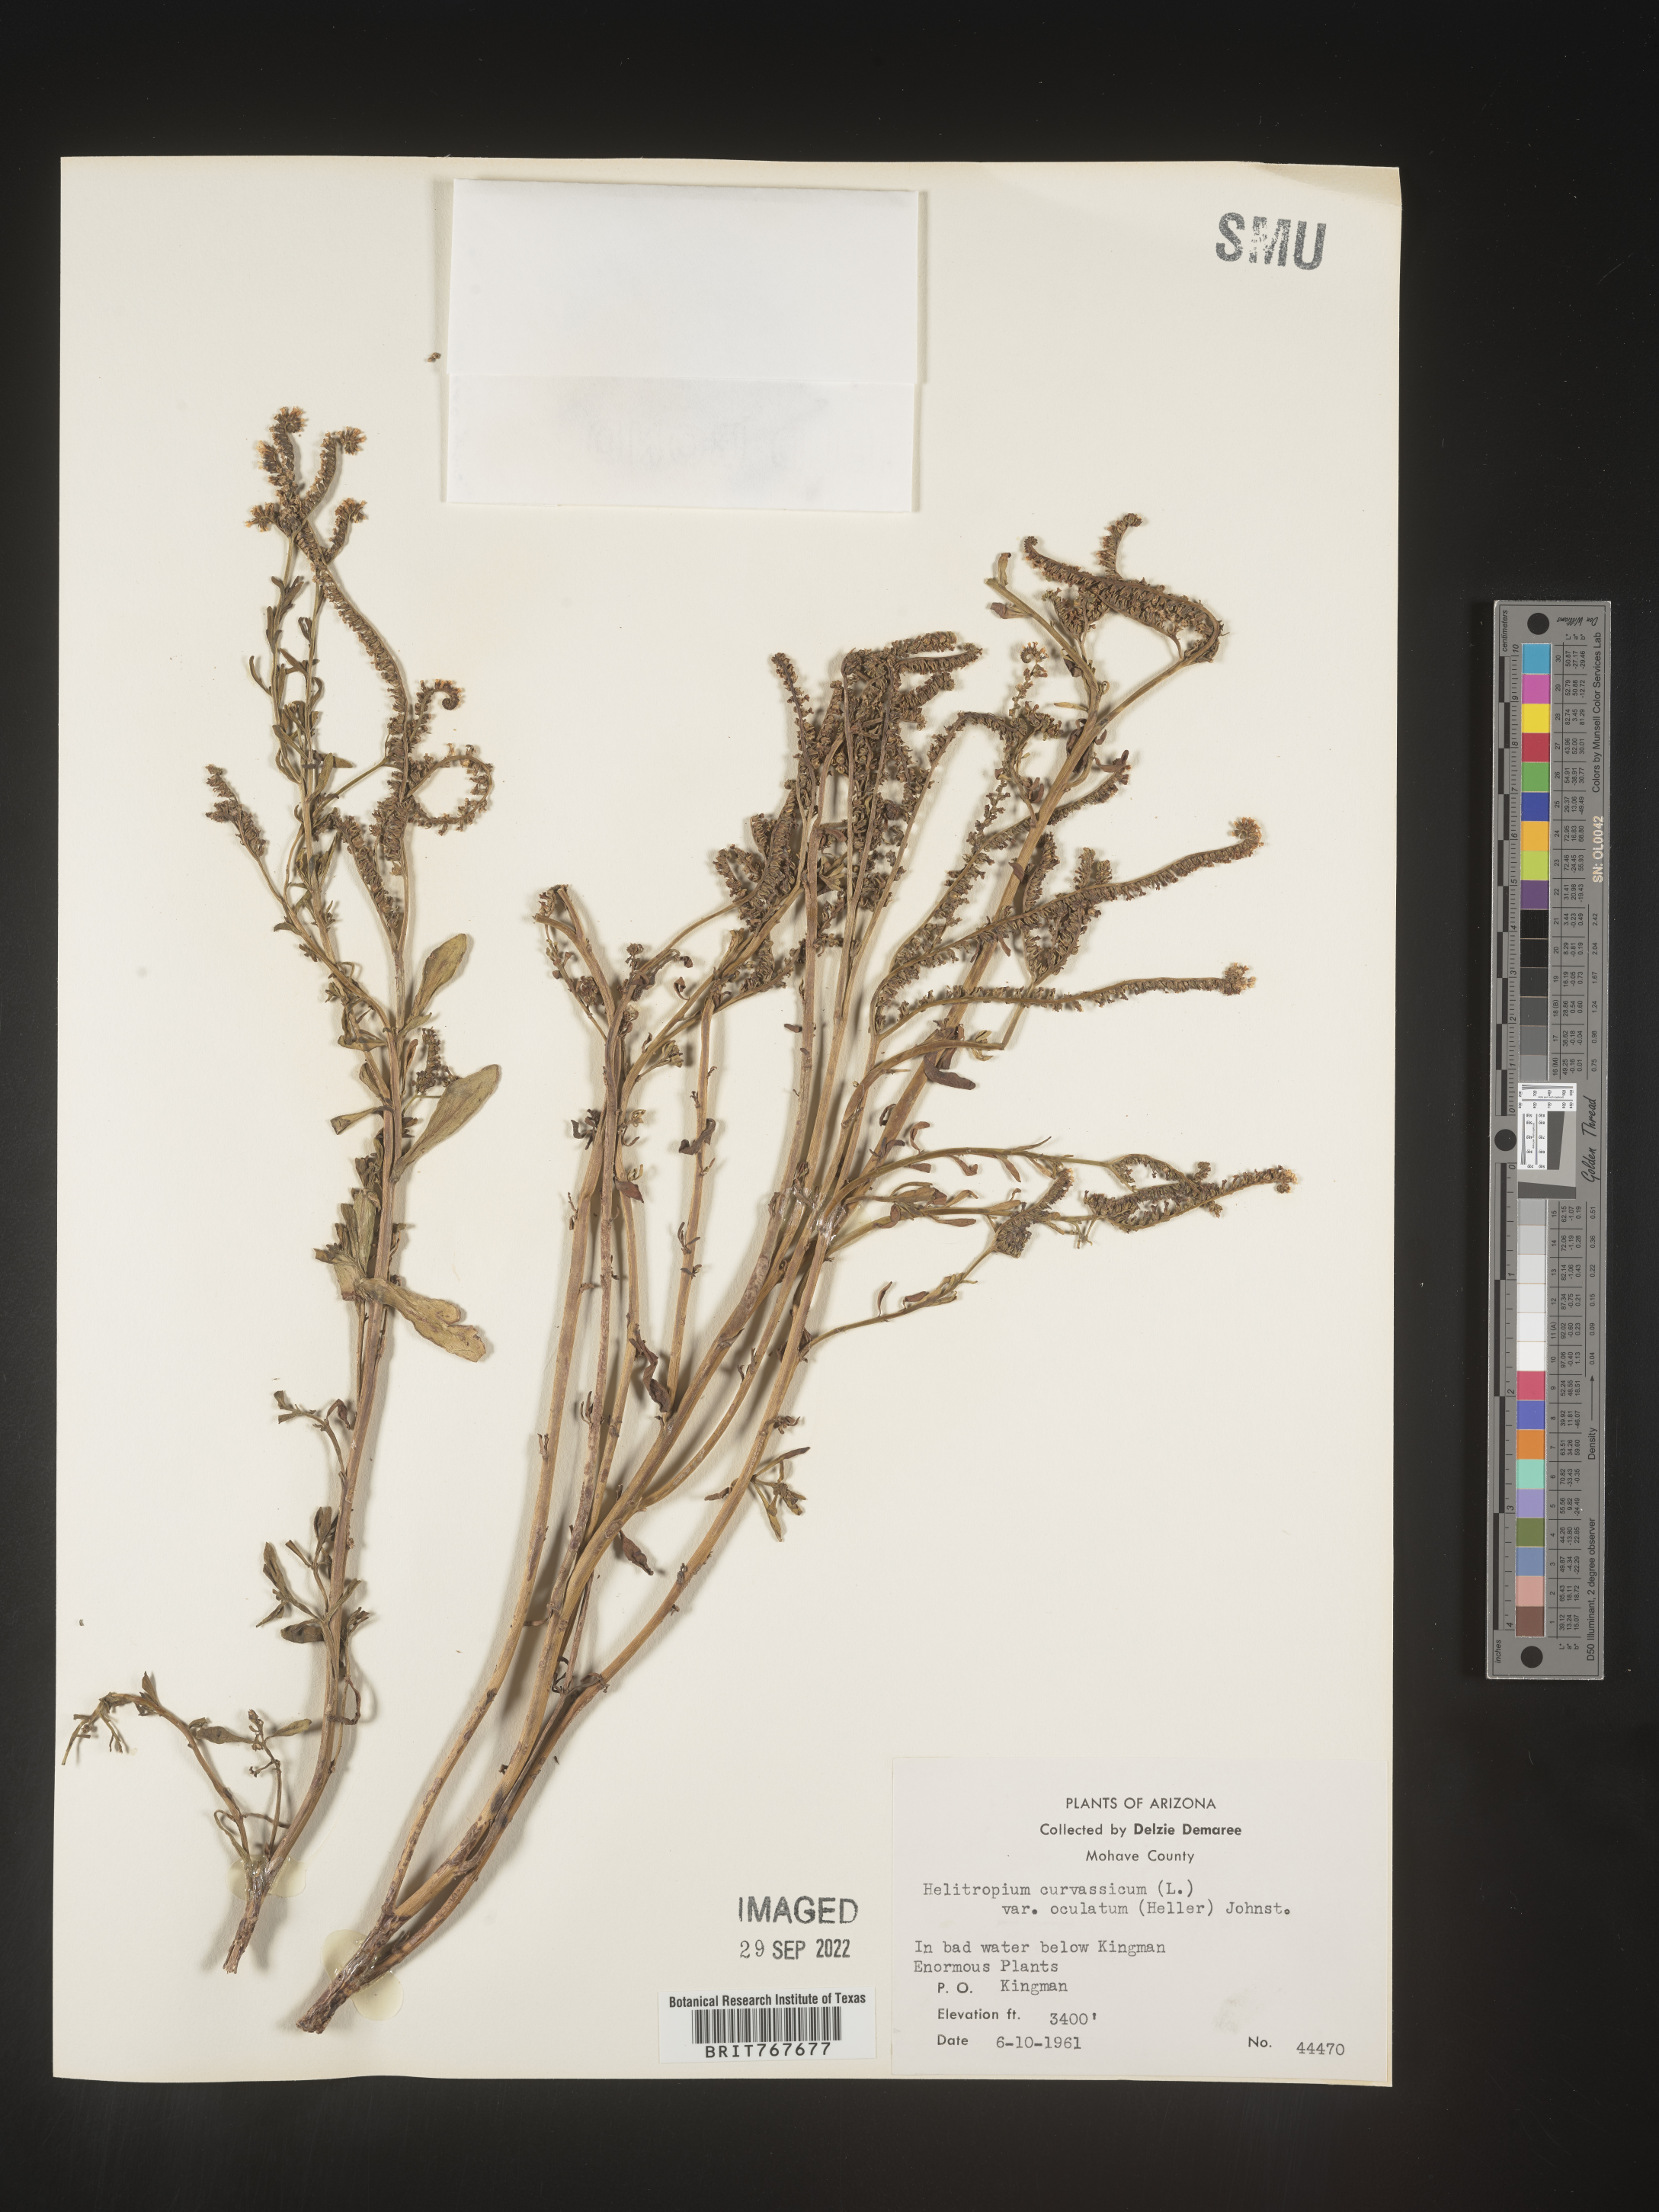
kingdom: Plantae
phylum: Tracheophyta
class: Magnoliopsida
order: Boraginales
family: Heliotropiaceae
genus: Heliotropium
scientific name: Heliotropium curassavicum
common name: Seaside heliotrope
